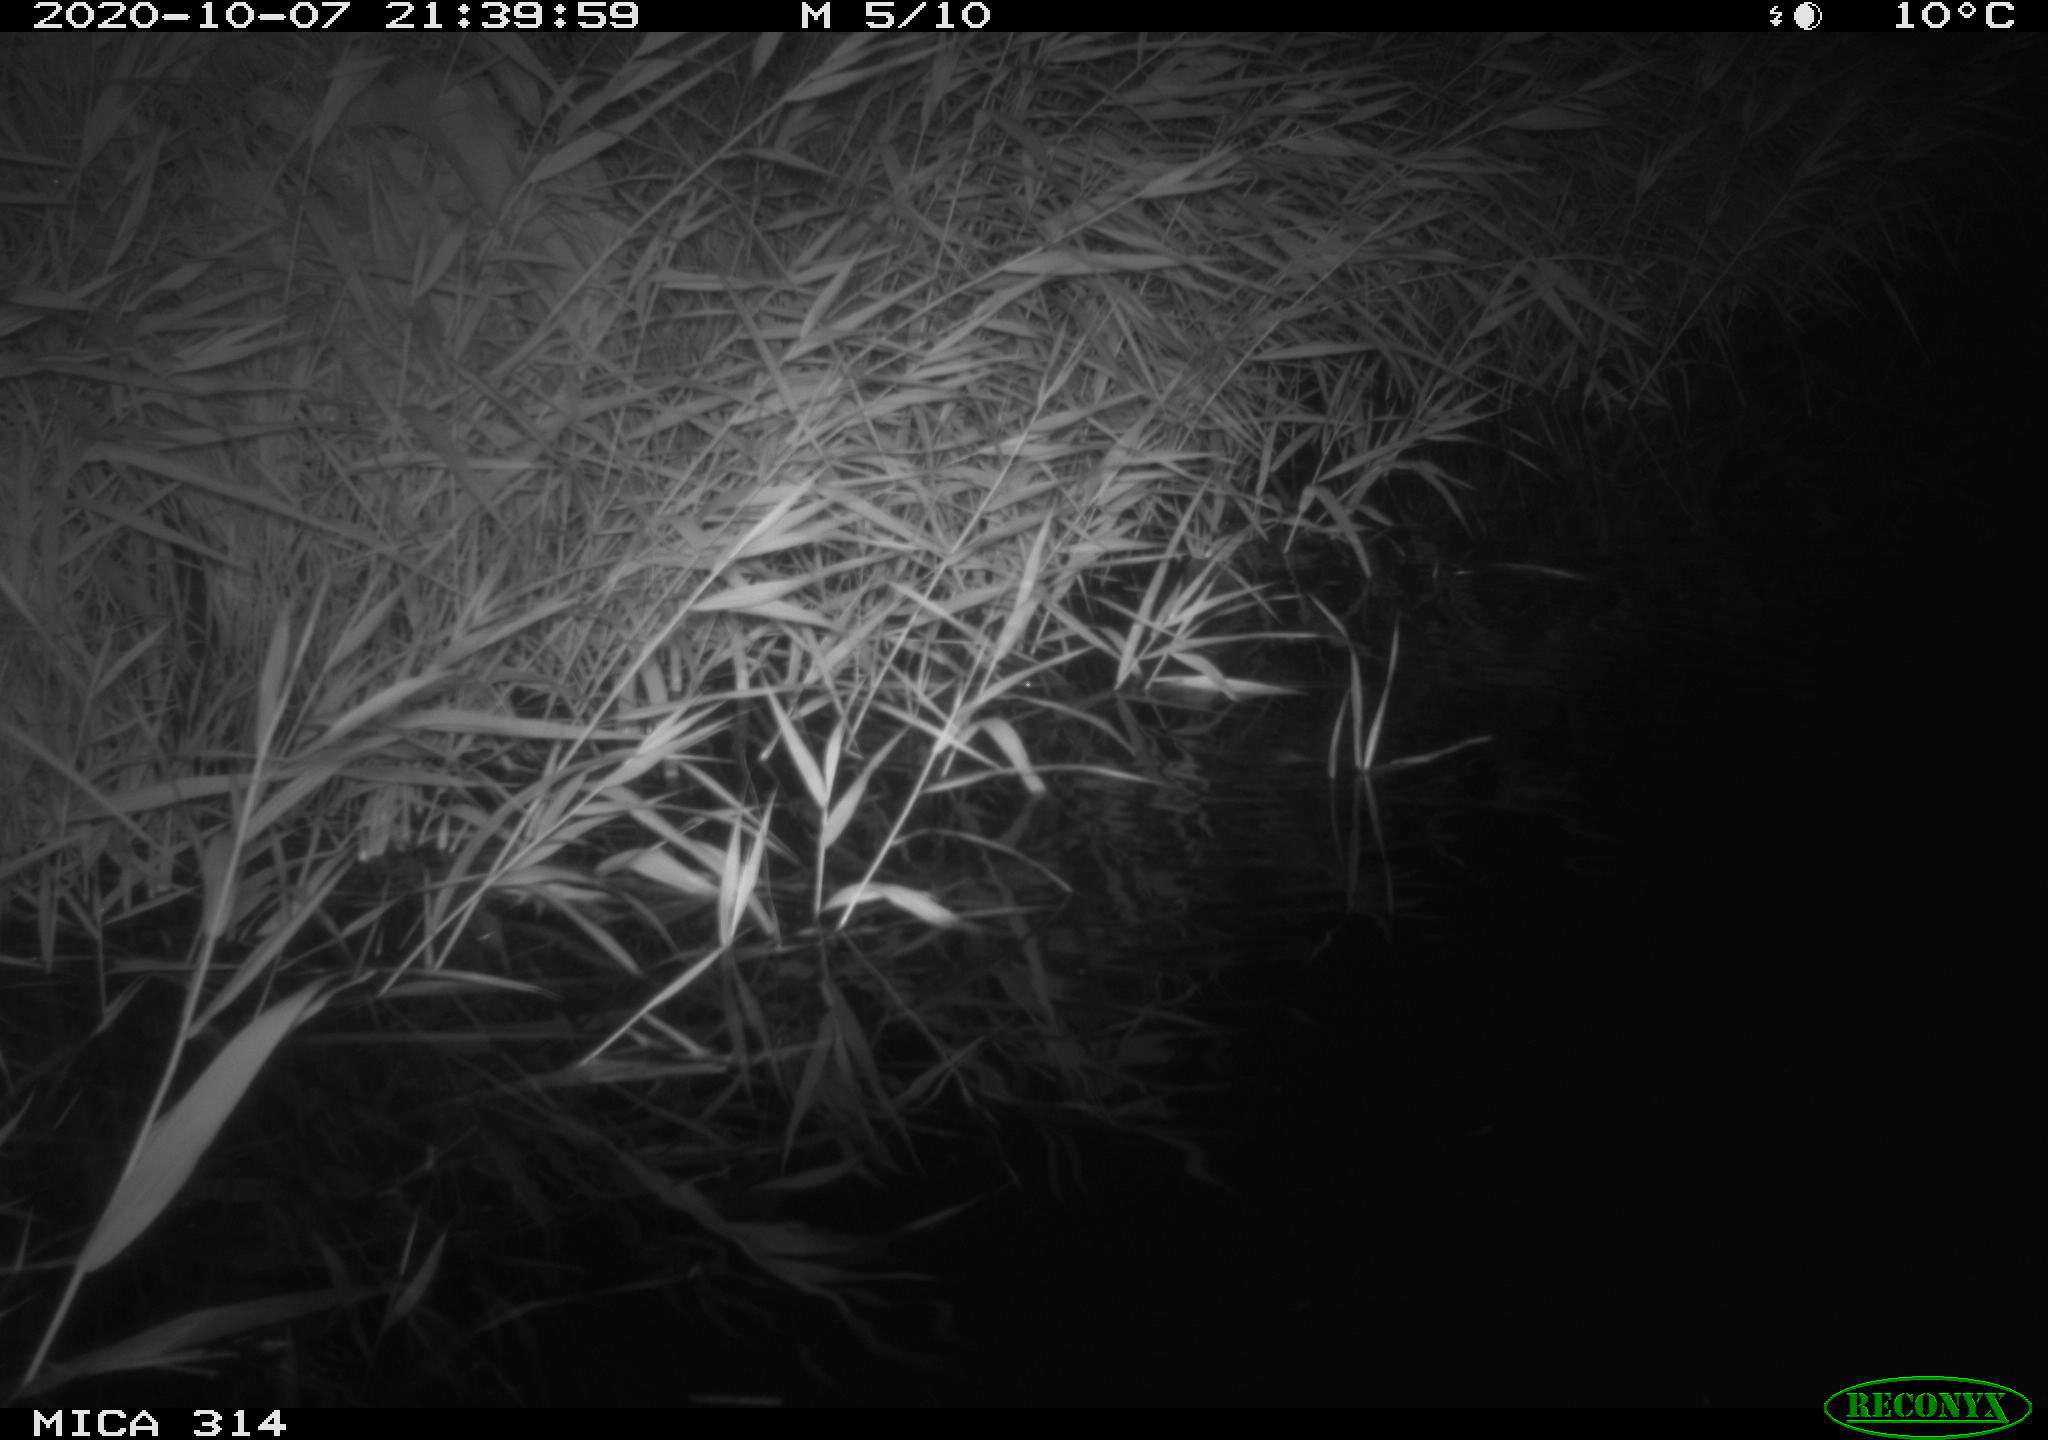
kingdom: Animalia
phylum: Chordata
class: Mammalia
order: Rodentia
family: Muridae
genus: Rattus
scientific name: Rattus norvegicus
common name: Brown rat
